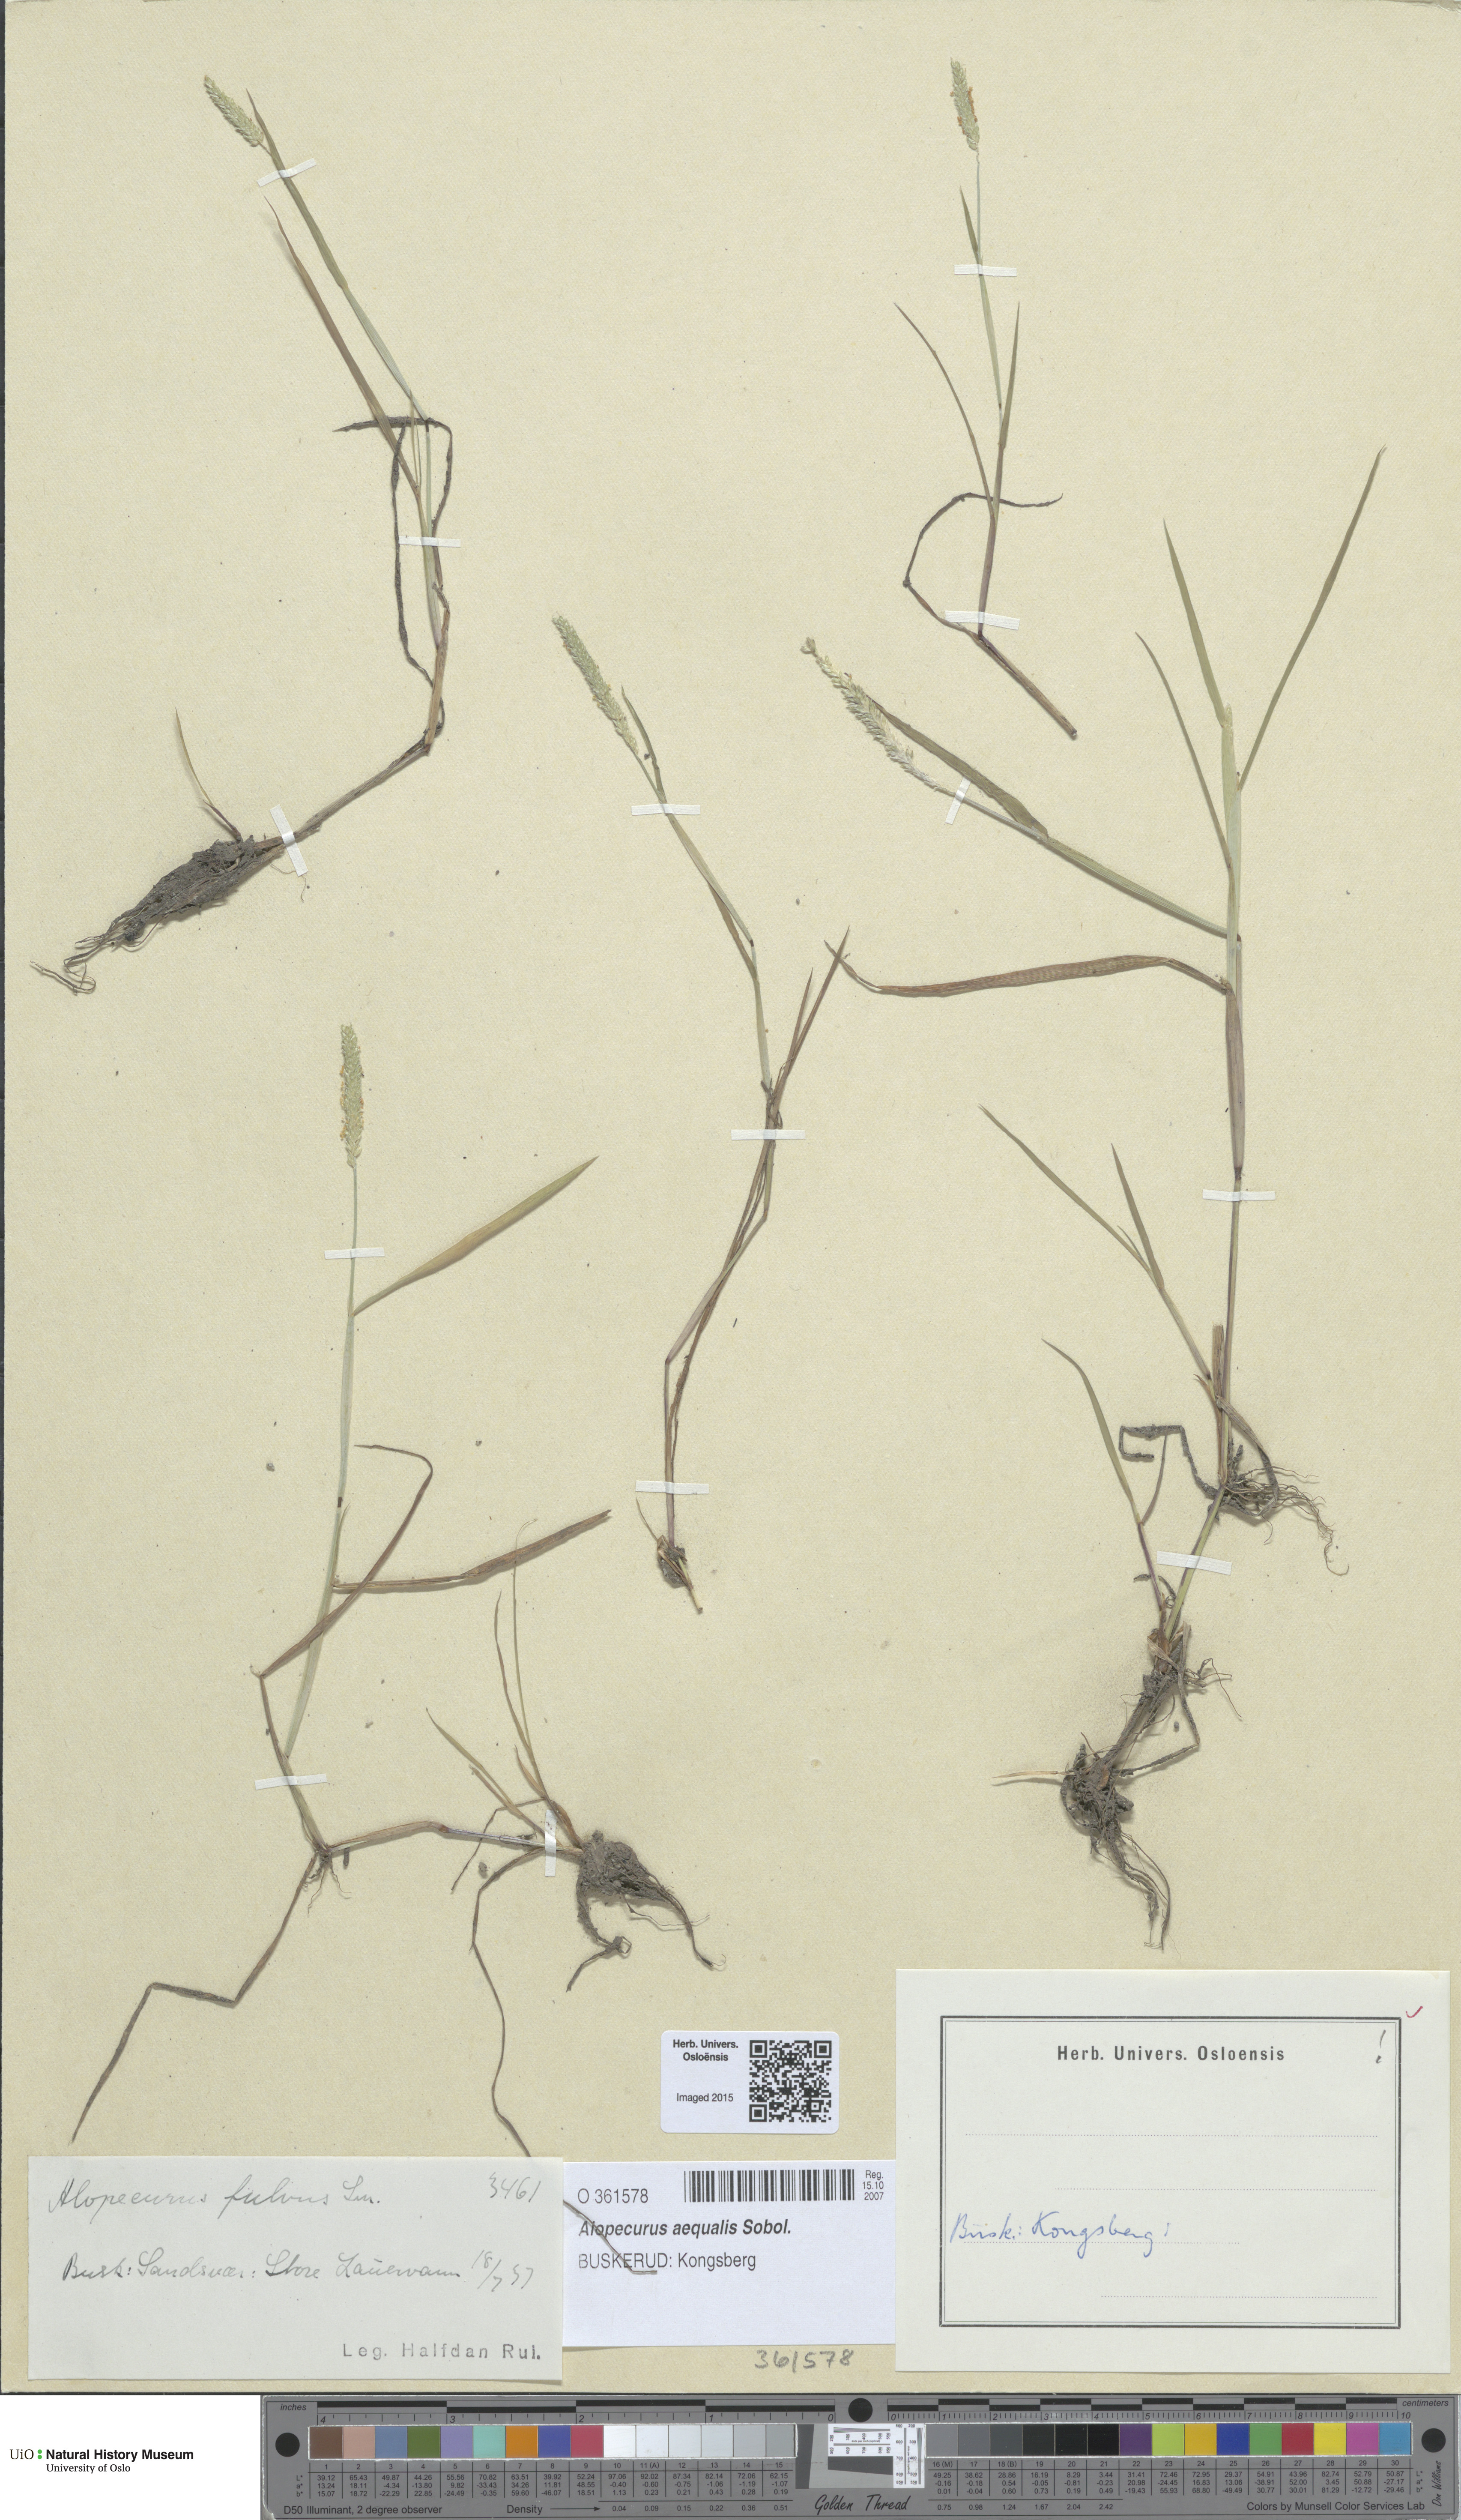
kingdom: Plantae
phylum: Tracheophyta
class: Liliopsida
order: Poales
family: Poaceae
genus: Alopecurus
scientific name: Alopecurus aequalis
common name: Orange foxtail
